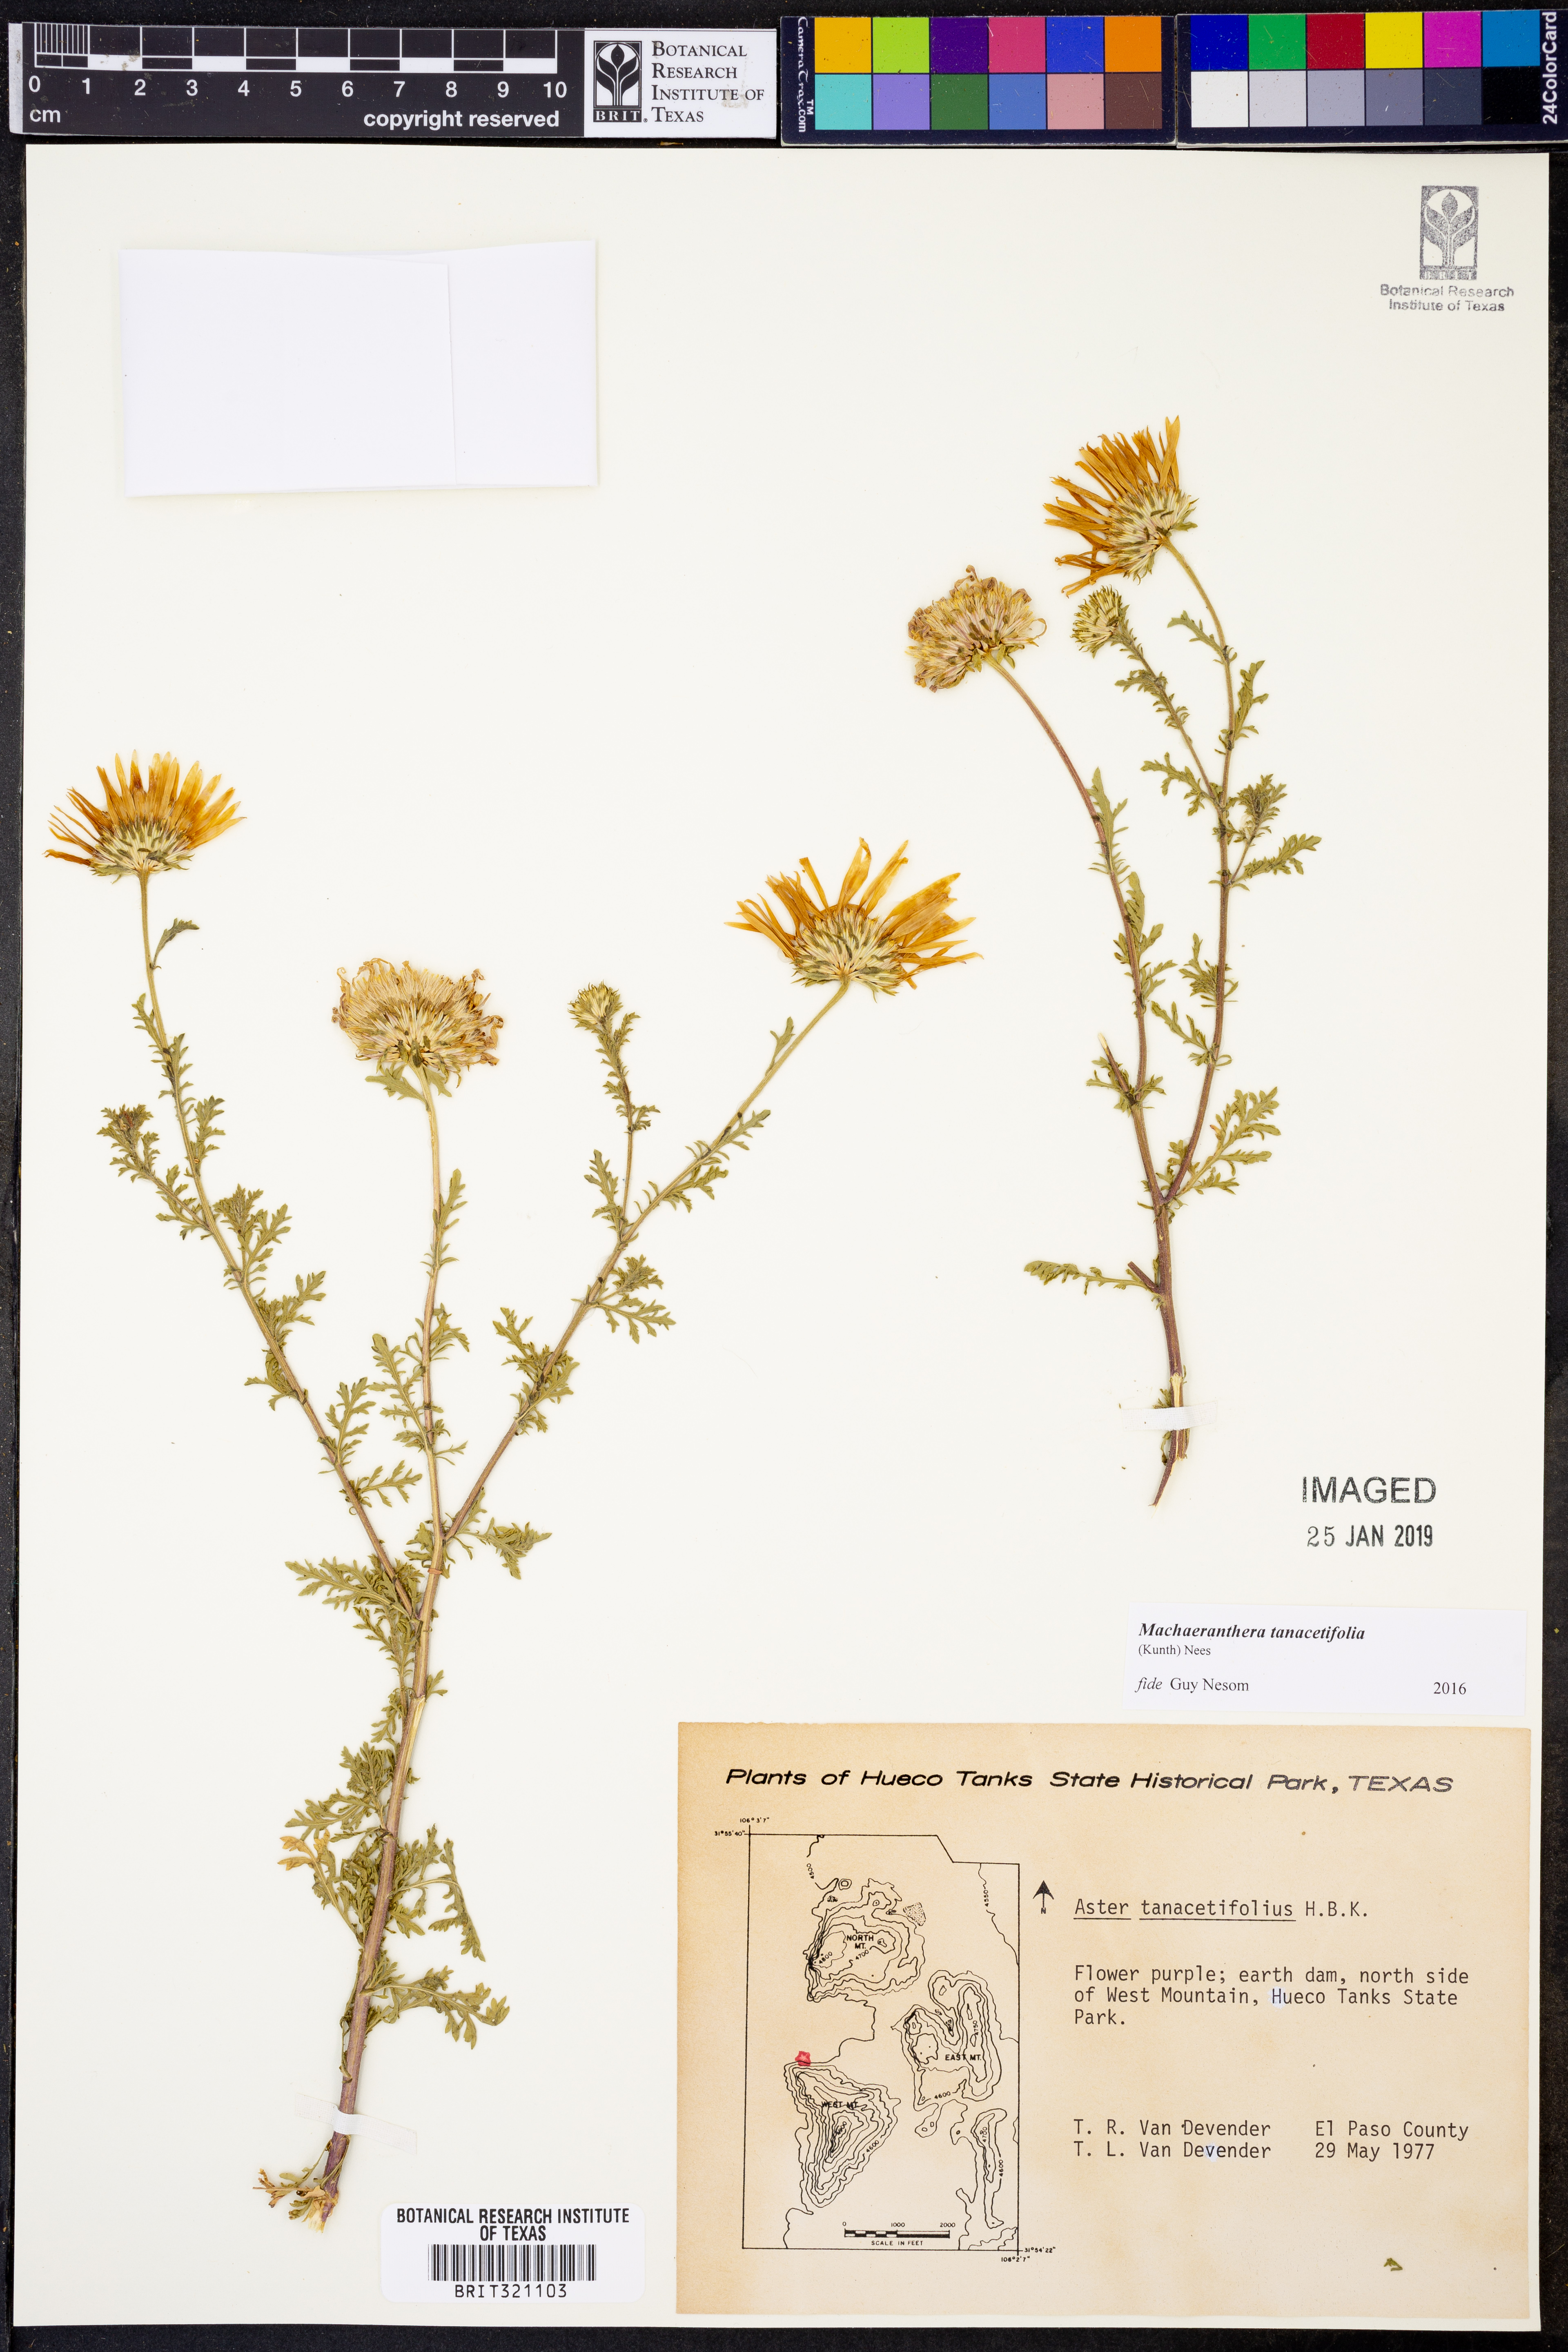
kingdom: Plantae
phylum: Tracheophyta
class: Magnoliopsida
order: Asterales
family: Asteraceae
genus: Machaeranthera
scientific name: Machaeranthera tanacetifolia
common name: Tansy-aster
